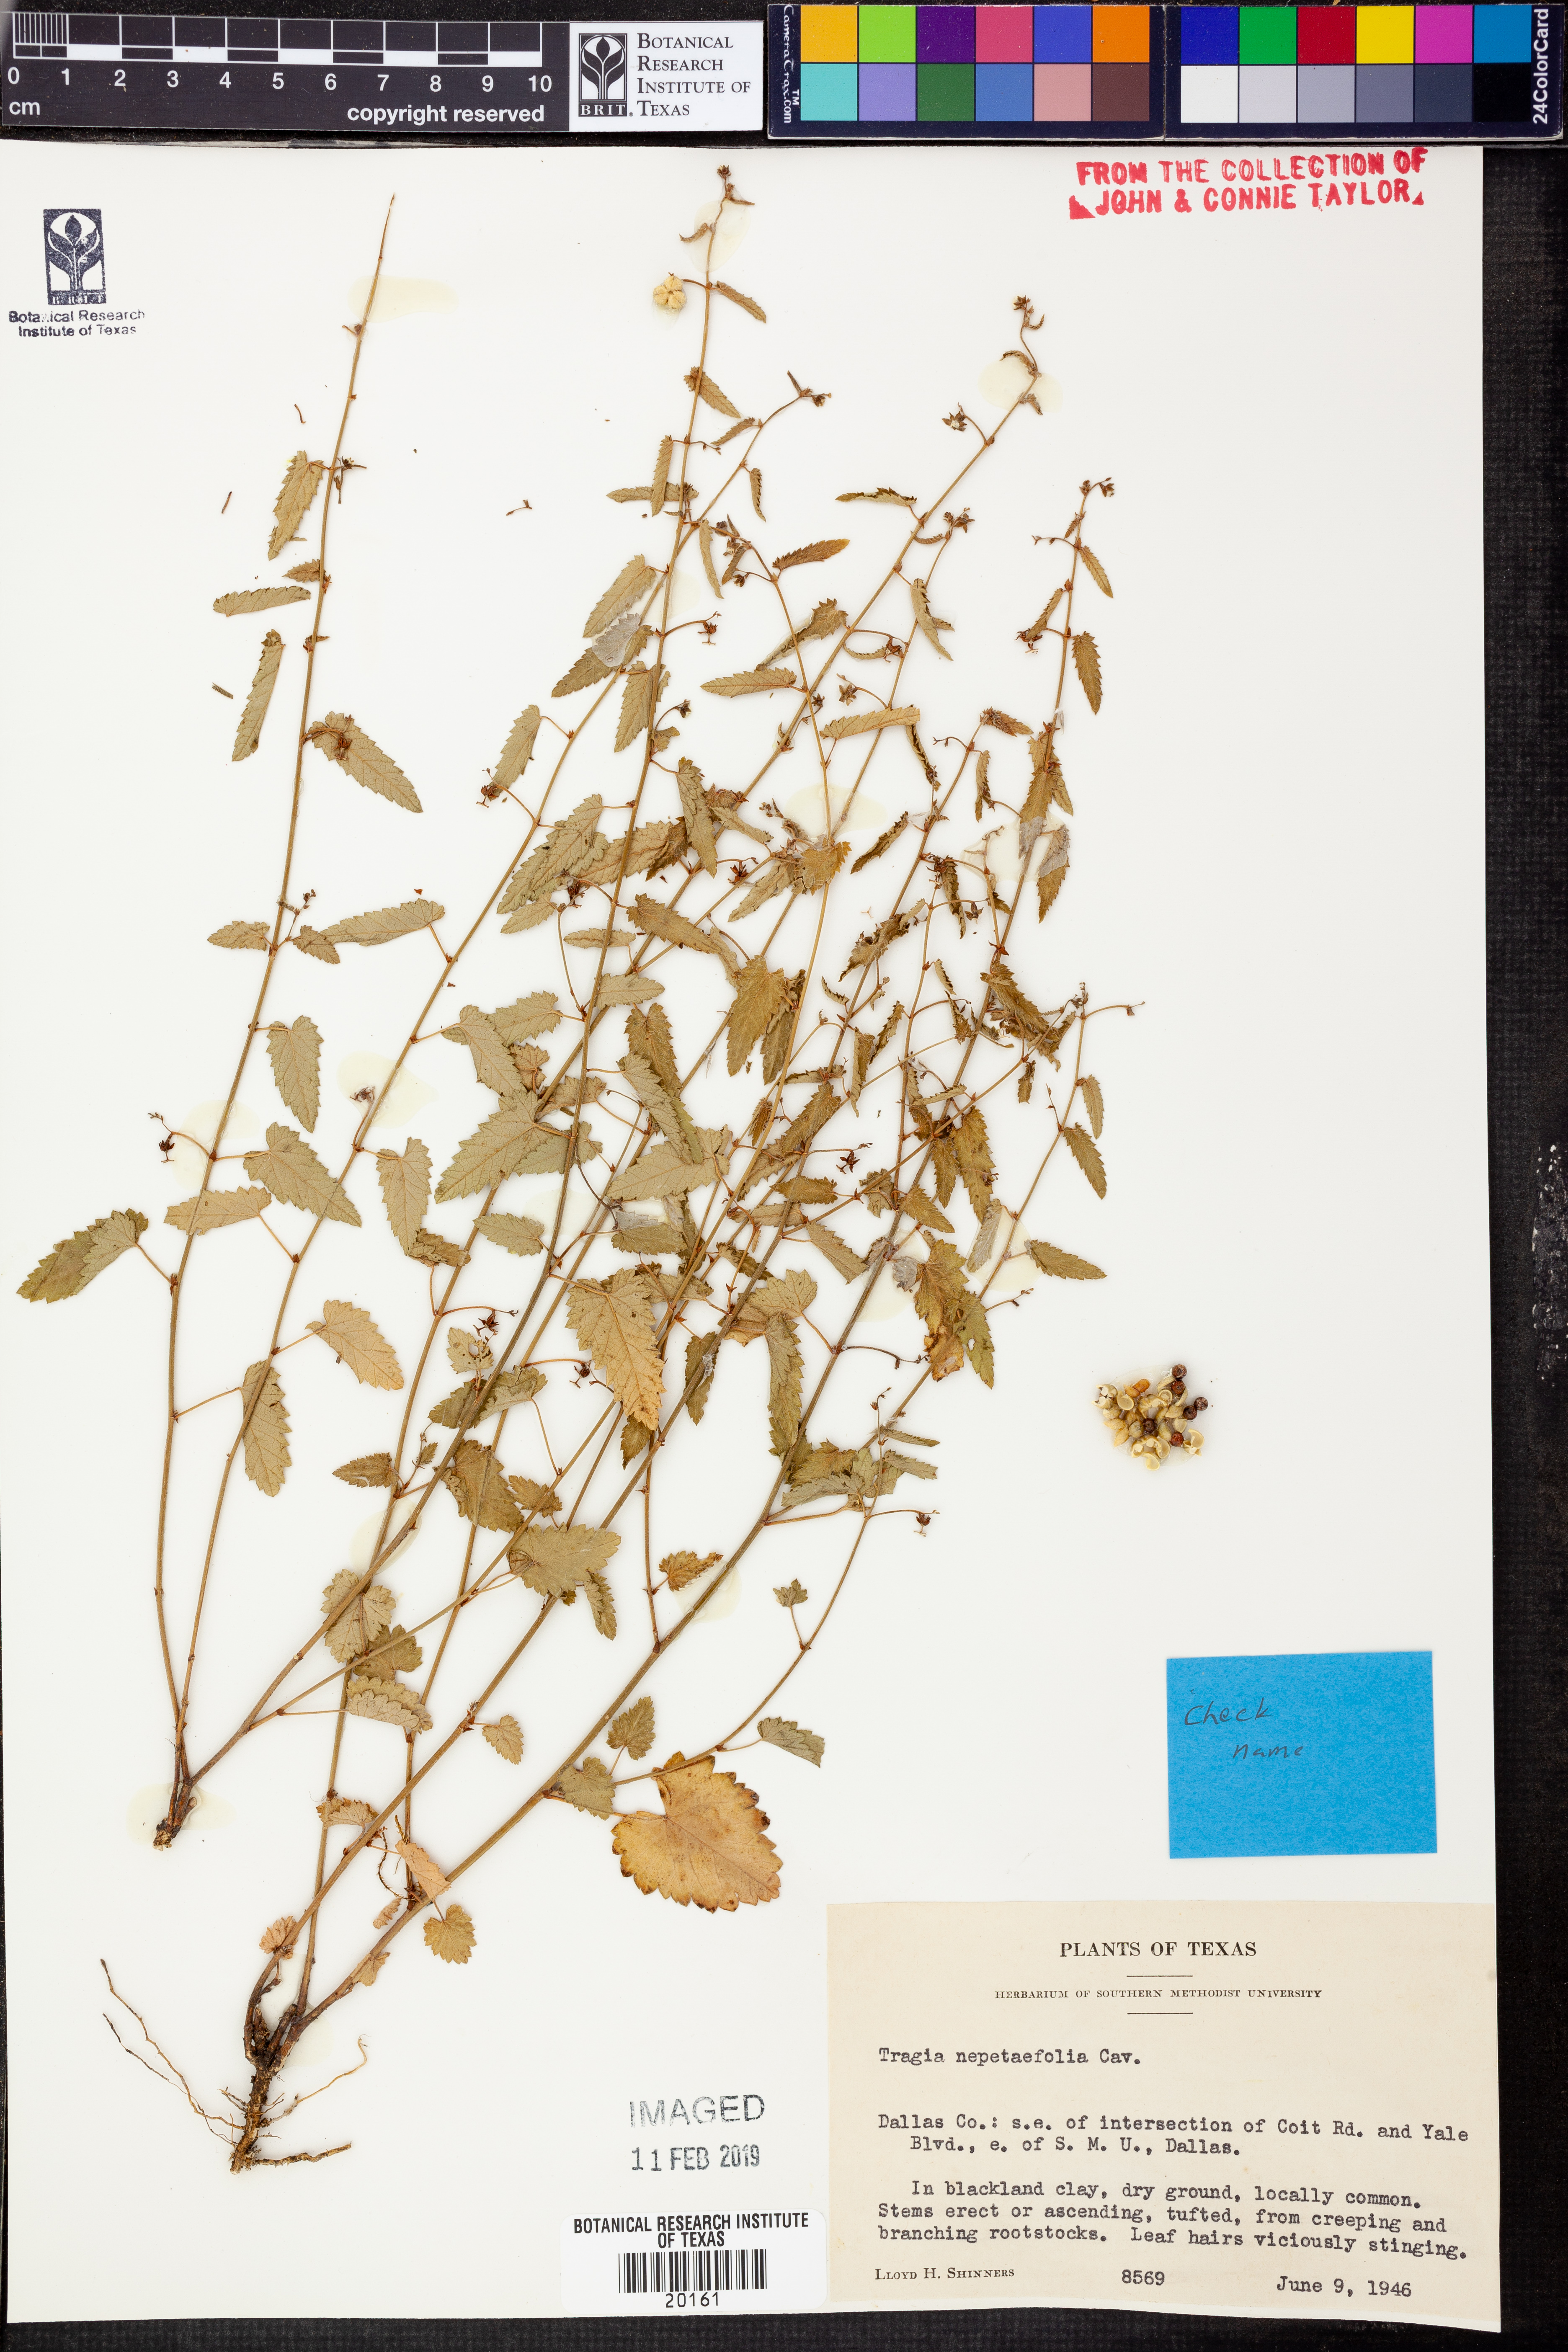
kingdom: Plantae
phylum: Tracheophyta
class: Magnoliopsida
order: Malpighiales
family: Euphorbiaceae
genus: Tragia
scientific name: Tragia bahiensis
